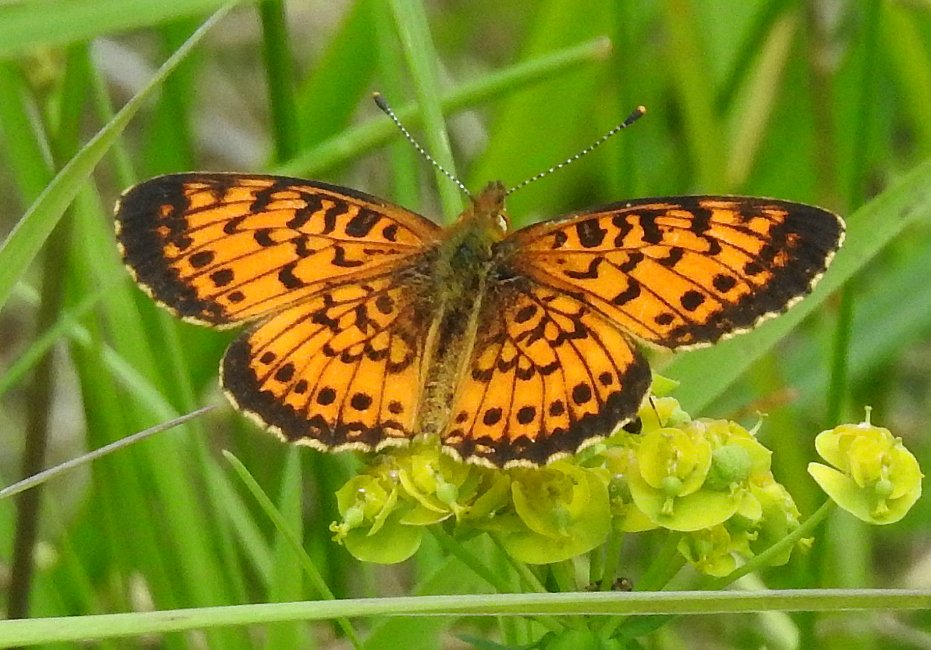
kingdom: Animalia
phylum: Arthropoda
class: Insecta
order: Lepidoptera
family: Nymphalidae
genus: Boloria
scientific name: Boloria selene
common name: Silver-bordered Fritillary
